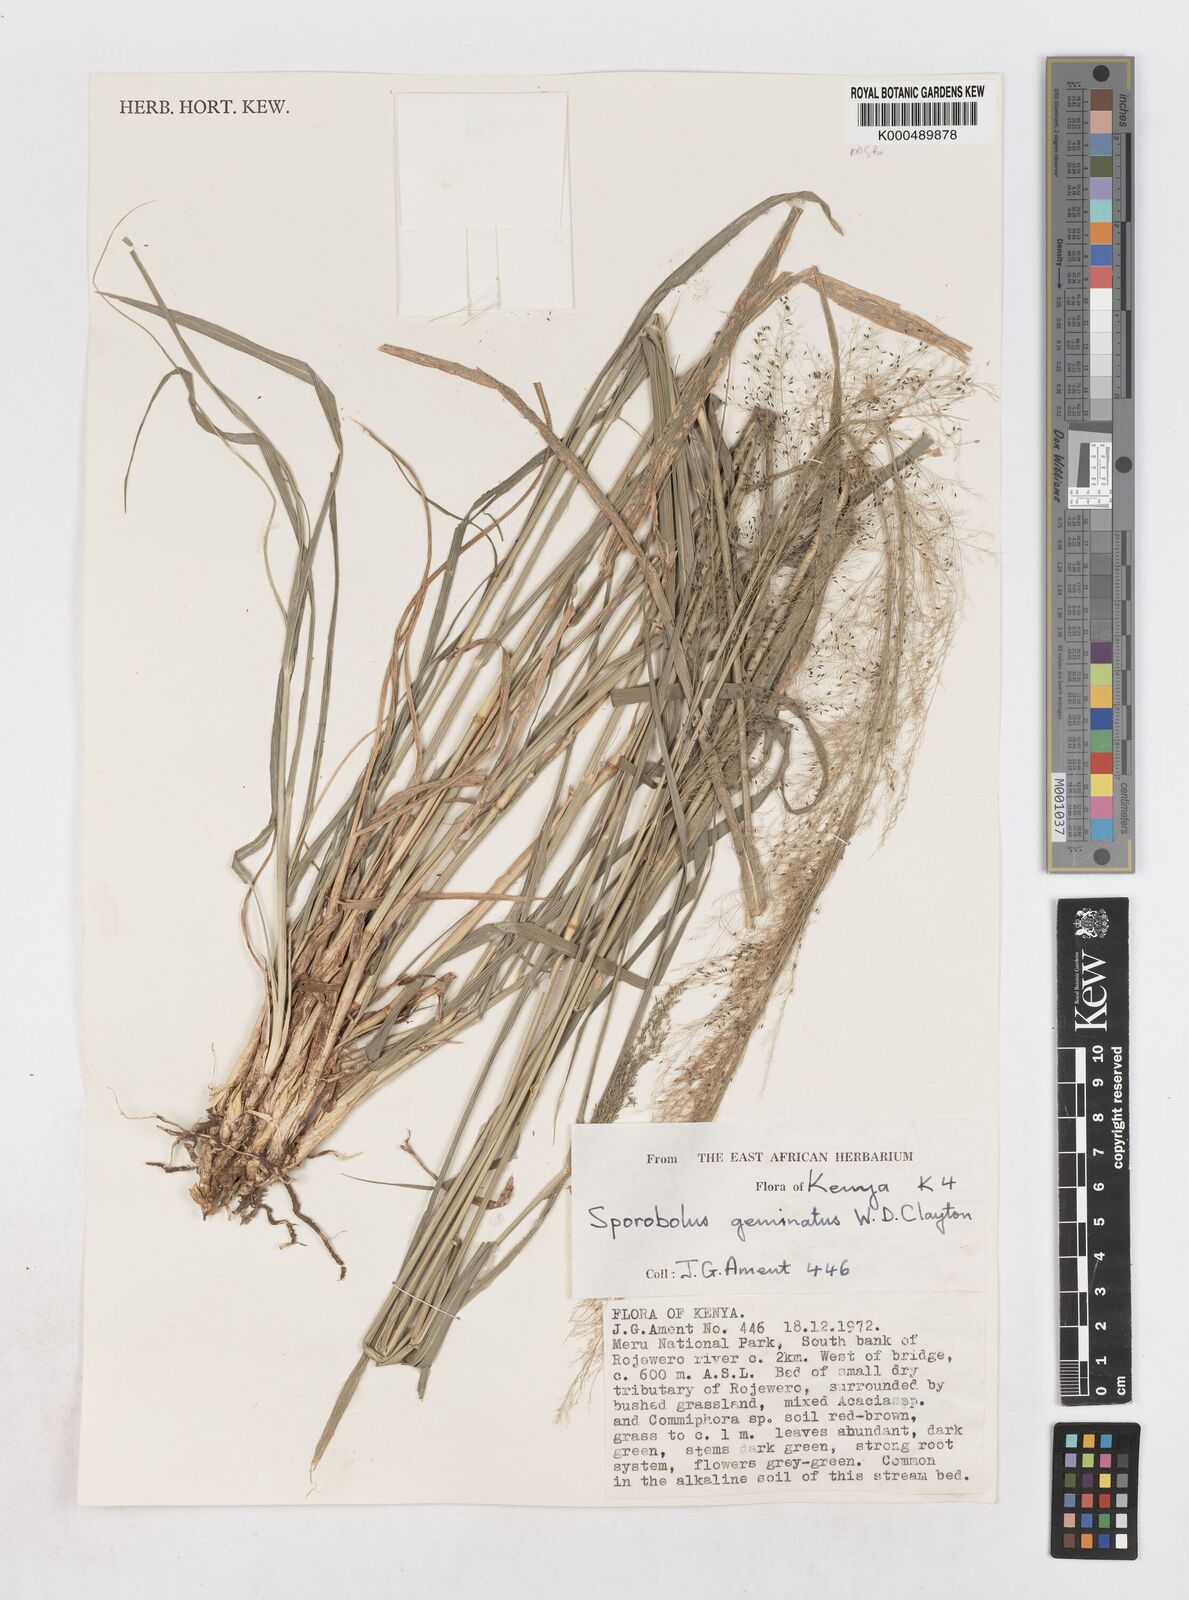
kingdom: Plantae
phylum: Tracheophyta
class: Liliopsida
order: Poales
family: Poaceae
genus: Sporobolus
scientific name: Sporobolus geminatus
